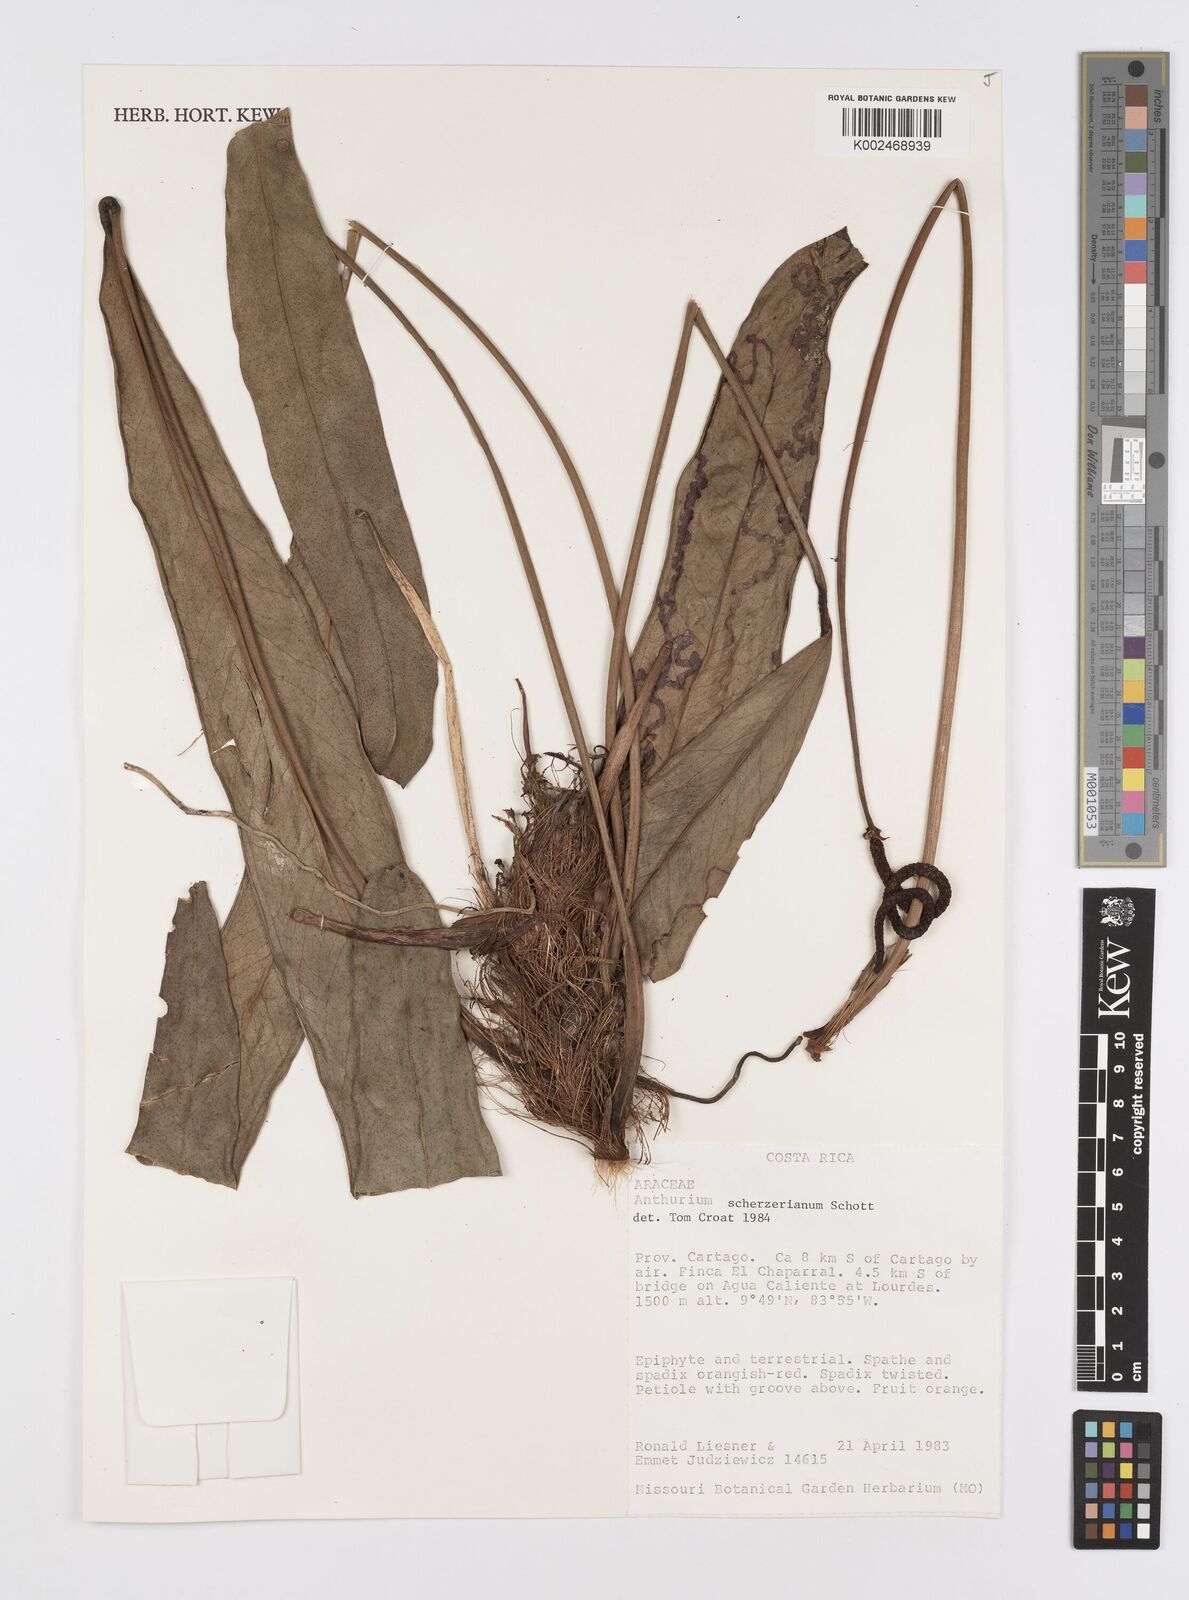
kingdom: Plantae
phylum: Tracheophyta
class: Liliopsida
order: Alismatales
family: Araceae
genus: Anthurium
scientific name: Anthurium scherzerianum
